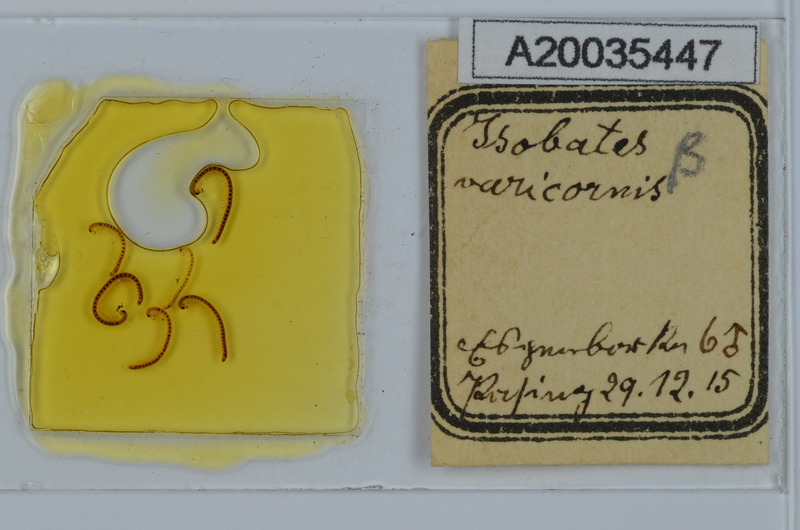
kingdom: Animalia
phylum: Arthropoda
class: Diplopoda
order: Julida
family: Nemasomatidae
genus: Isobates
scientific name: Isobates varicornis
